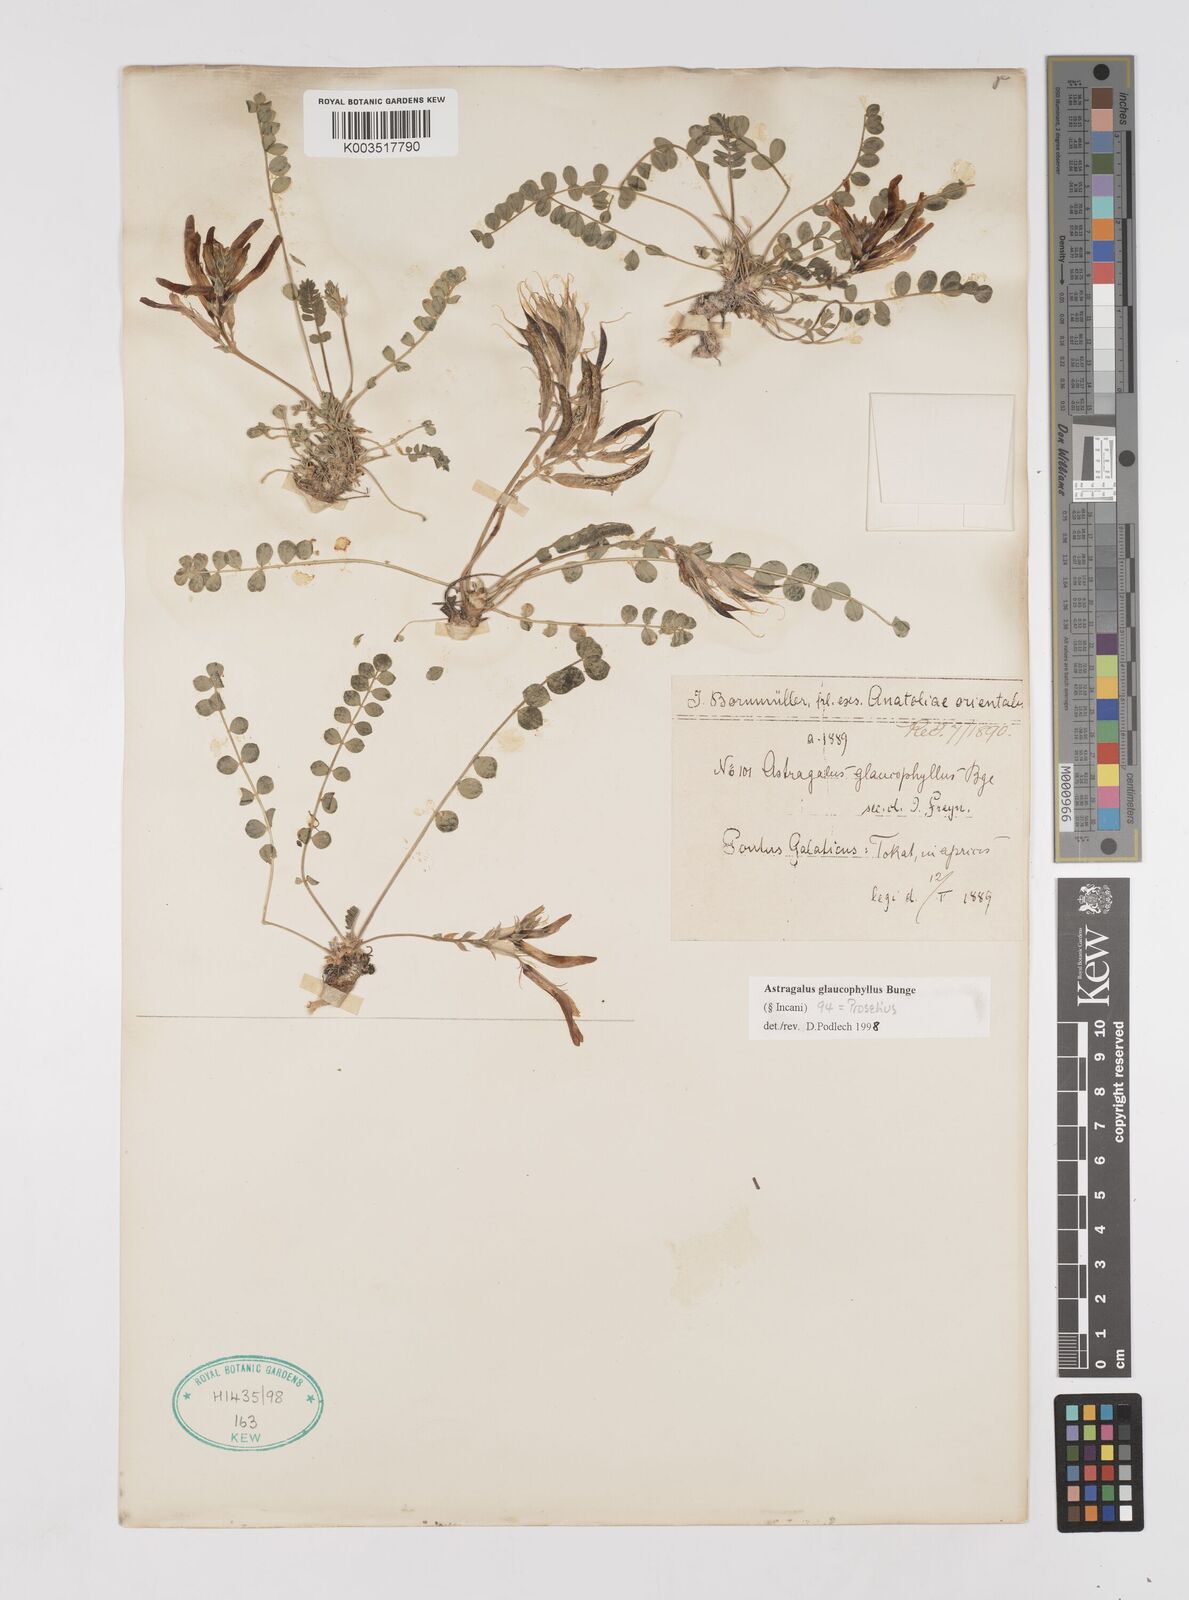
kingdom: Plantae
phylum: Tracheophyta
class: Magnoliopsida
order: Fabales
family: Fabaceae
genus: Astragalus
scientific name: Astragalus glaucophyllus
